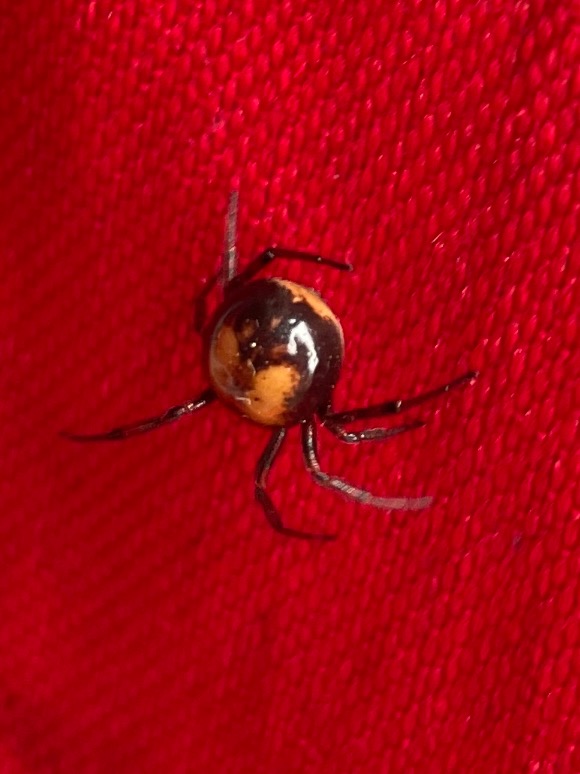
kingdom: Animalia
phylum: Arthropoda
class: Arachnida
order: Araneae
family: Theridiidae
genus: Steatoda
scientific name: Steatoda bipunctata
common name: Fedtedderkop
